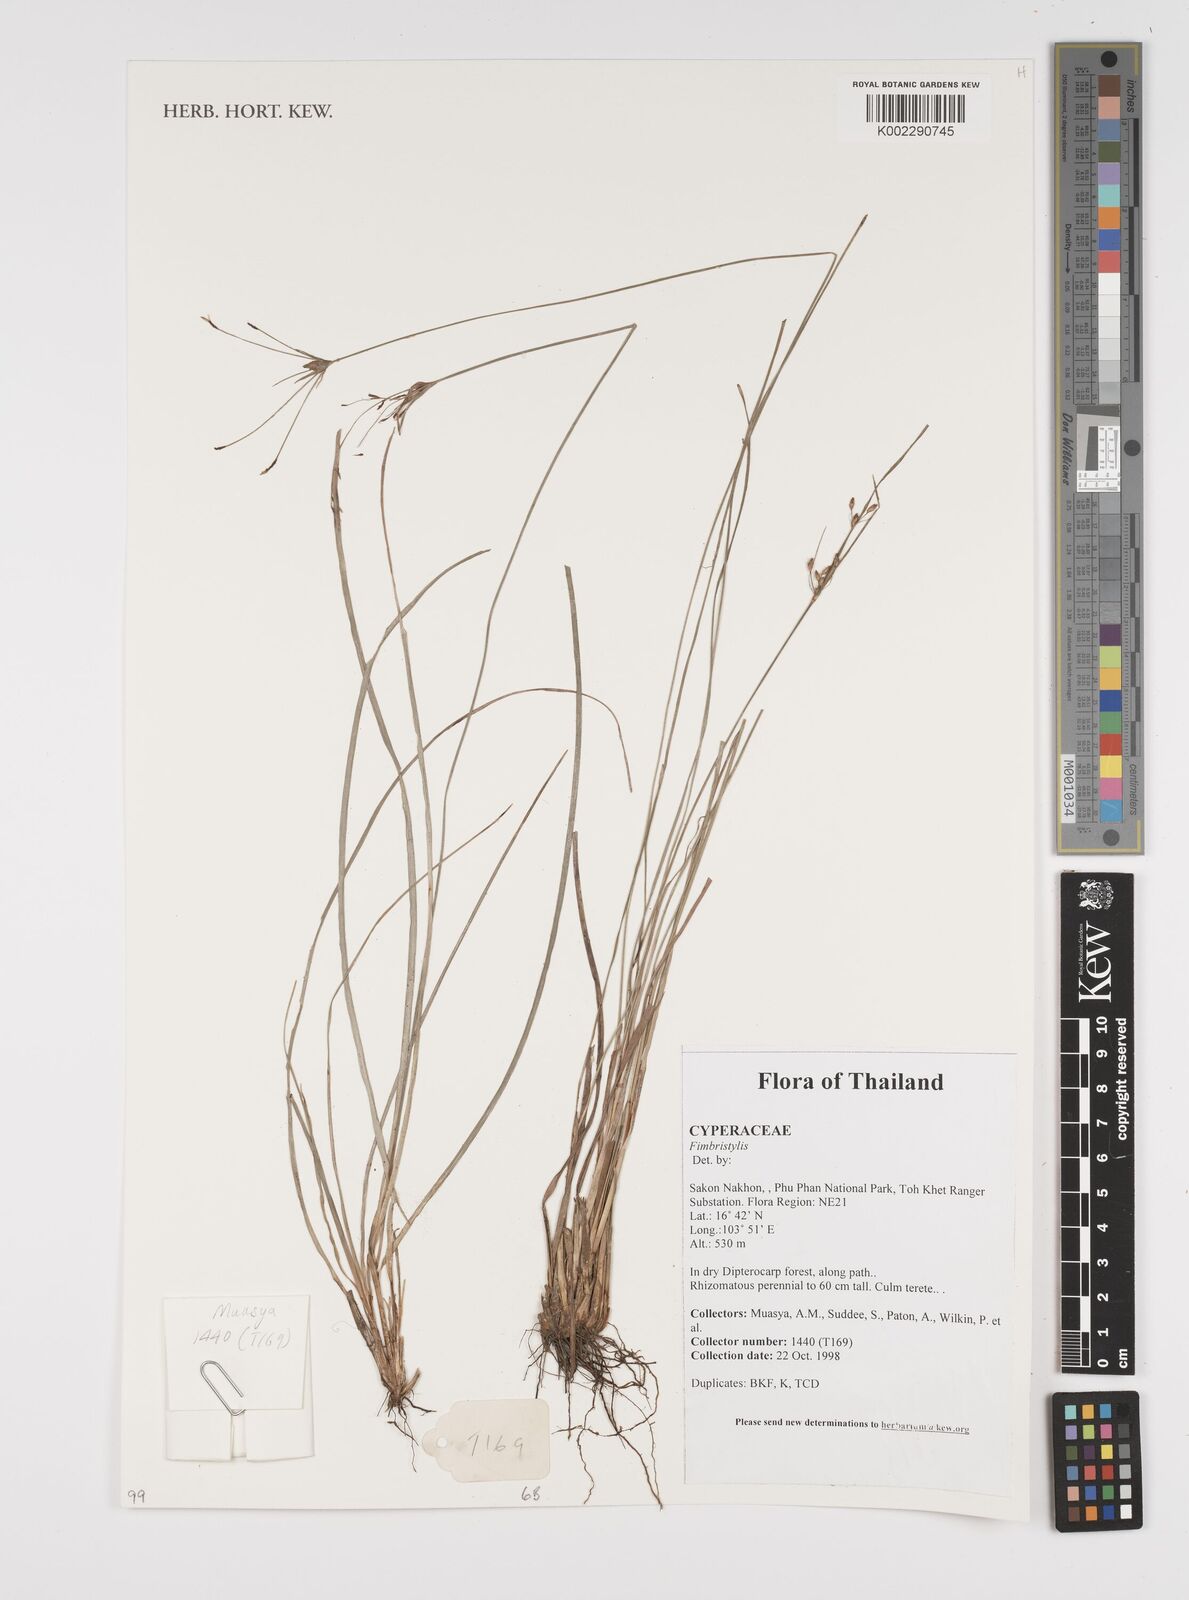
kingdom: Plantae
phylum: Tracheophyta
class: Liliopsida
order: Poales
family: Cyperaceae
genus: Fimbristylis
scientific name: Fimbristylis
